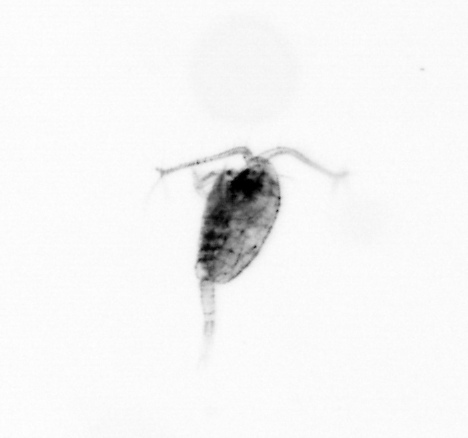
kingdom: Animalia
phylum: Arthropoda
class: Copepoda
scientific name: Copepoda
